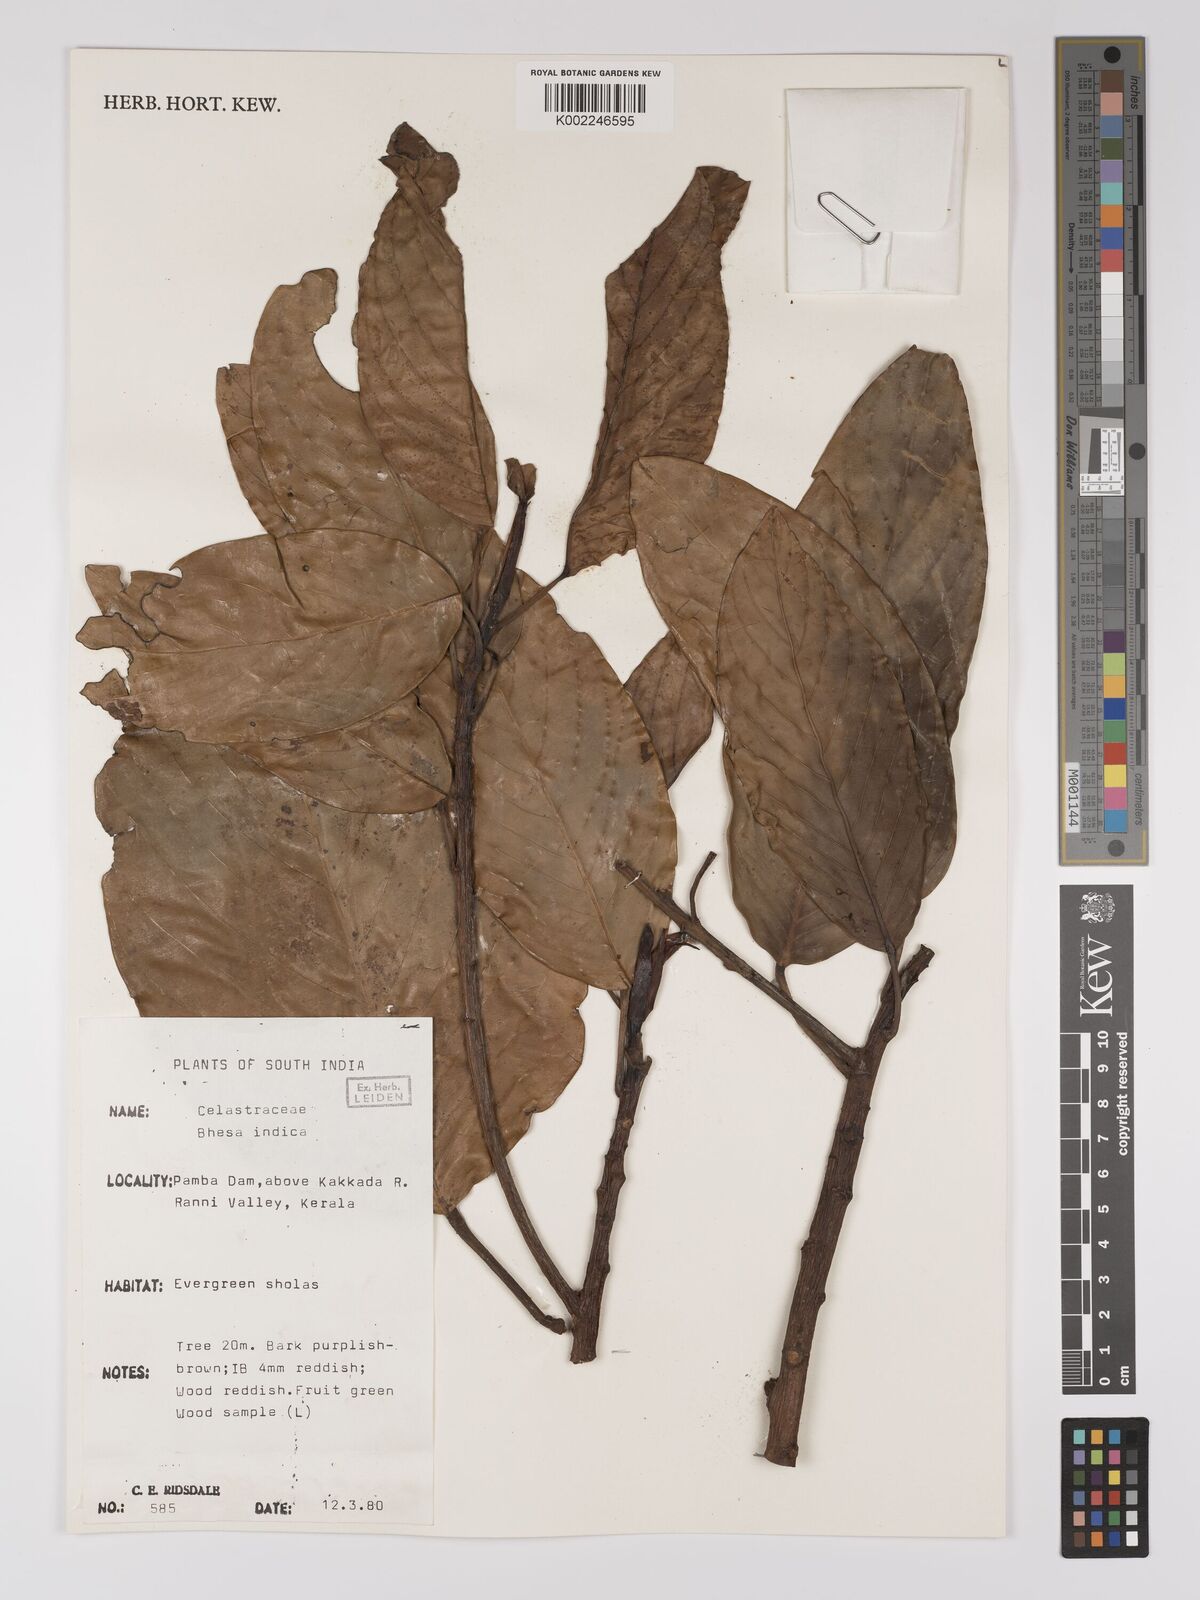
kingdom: Plantae
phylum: Tracheophyta
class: Magnoliopsida
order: Malpighiales
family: Centroplacaceae
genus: Bhesa
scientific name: Bhesa indica
